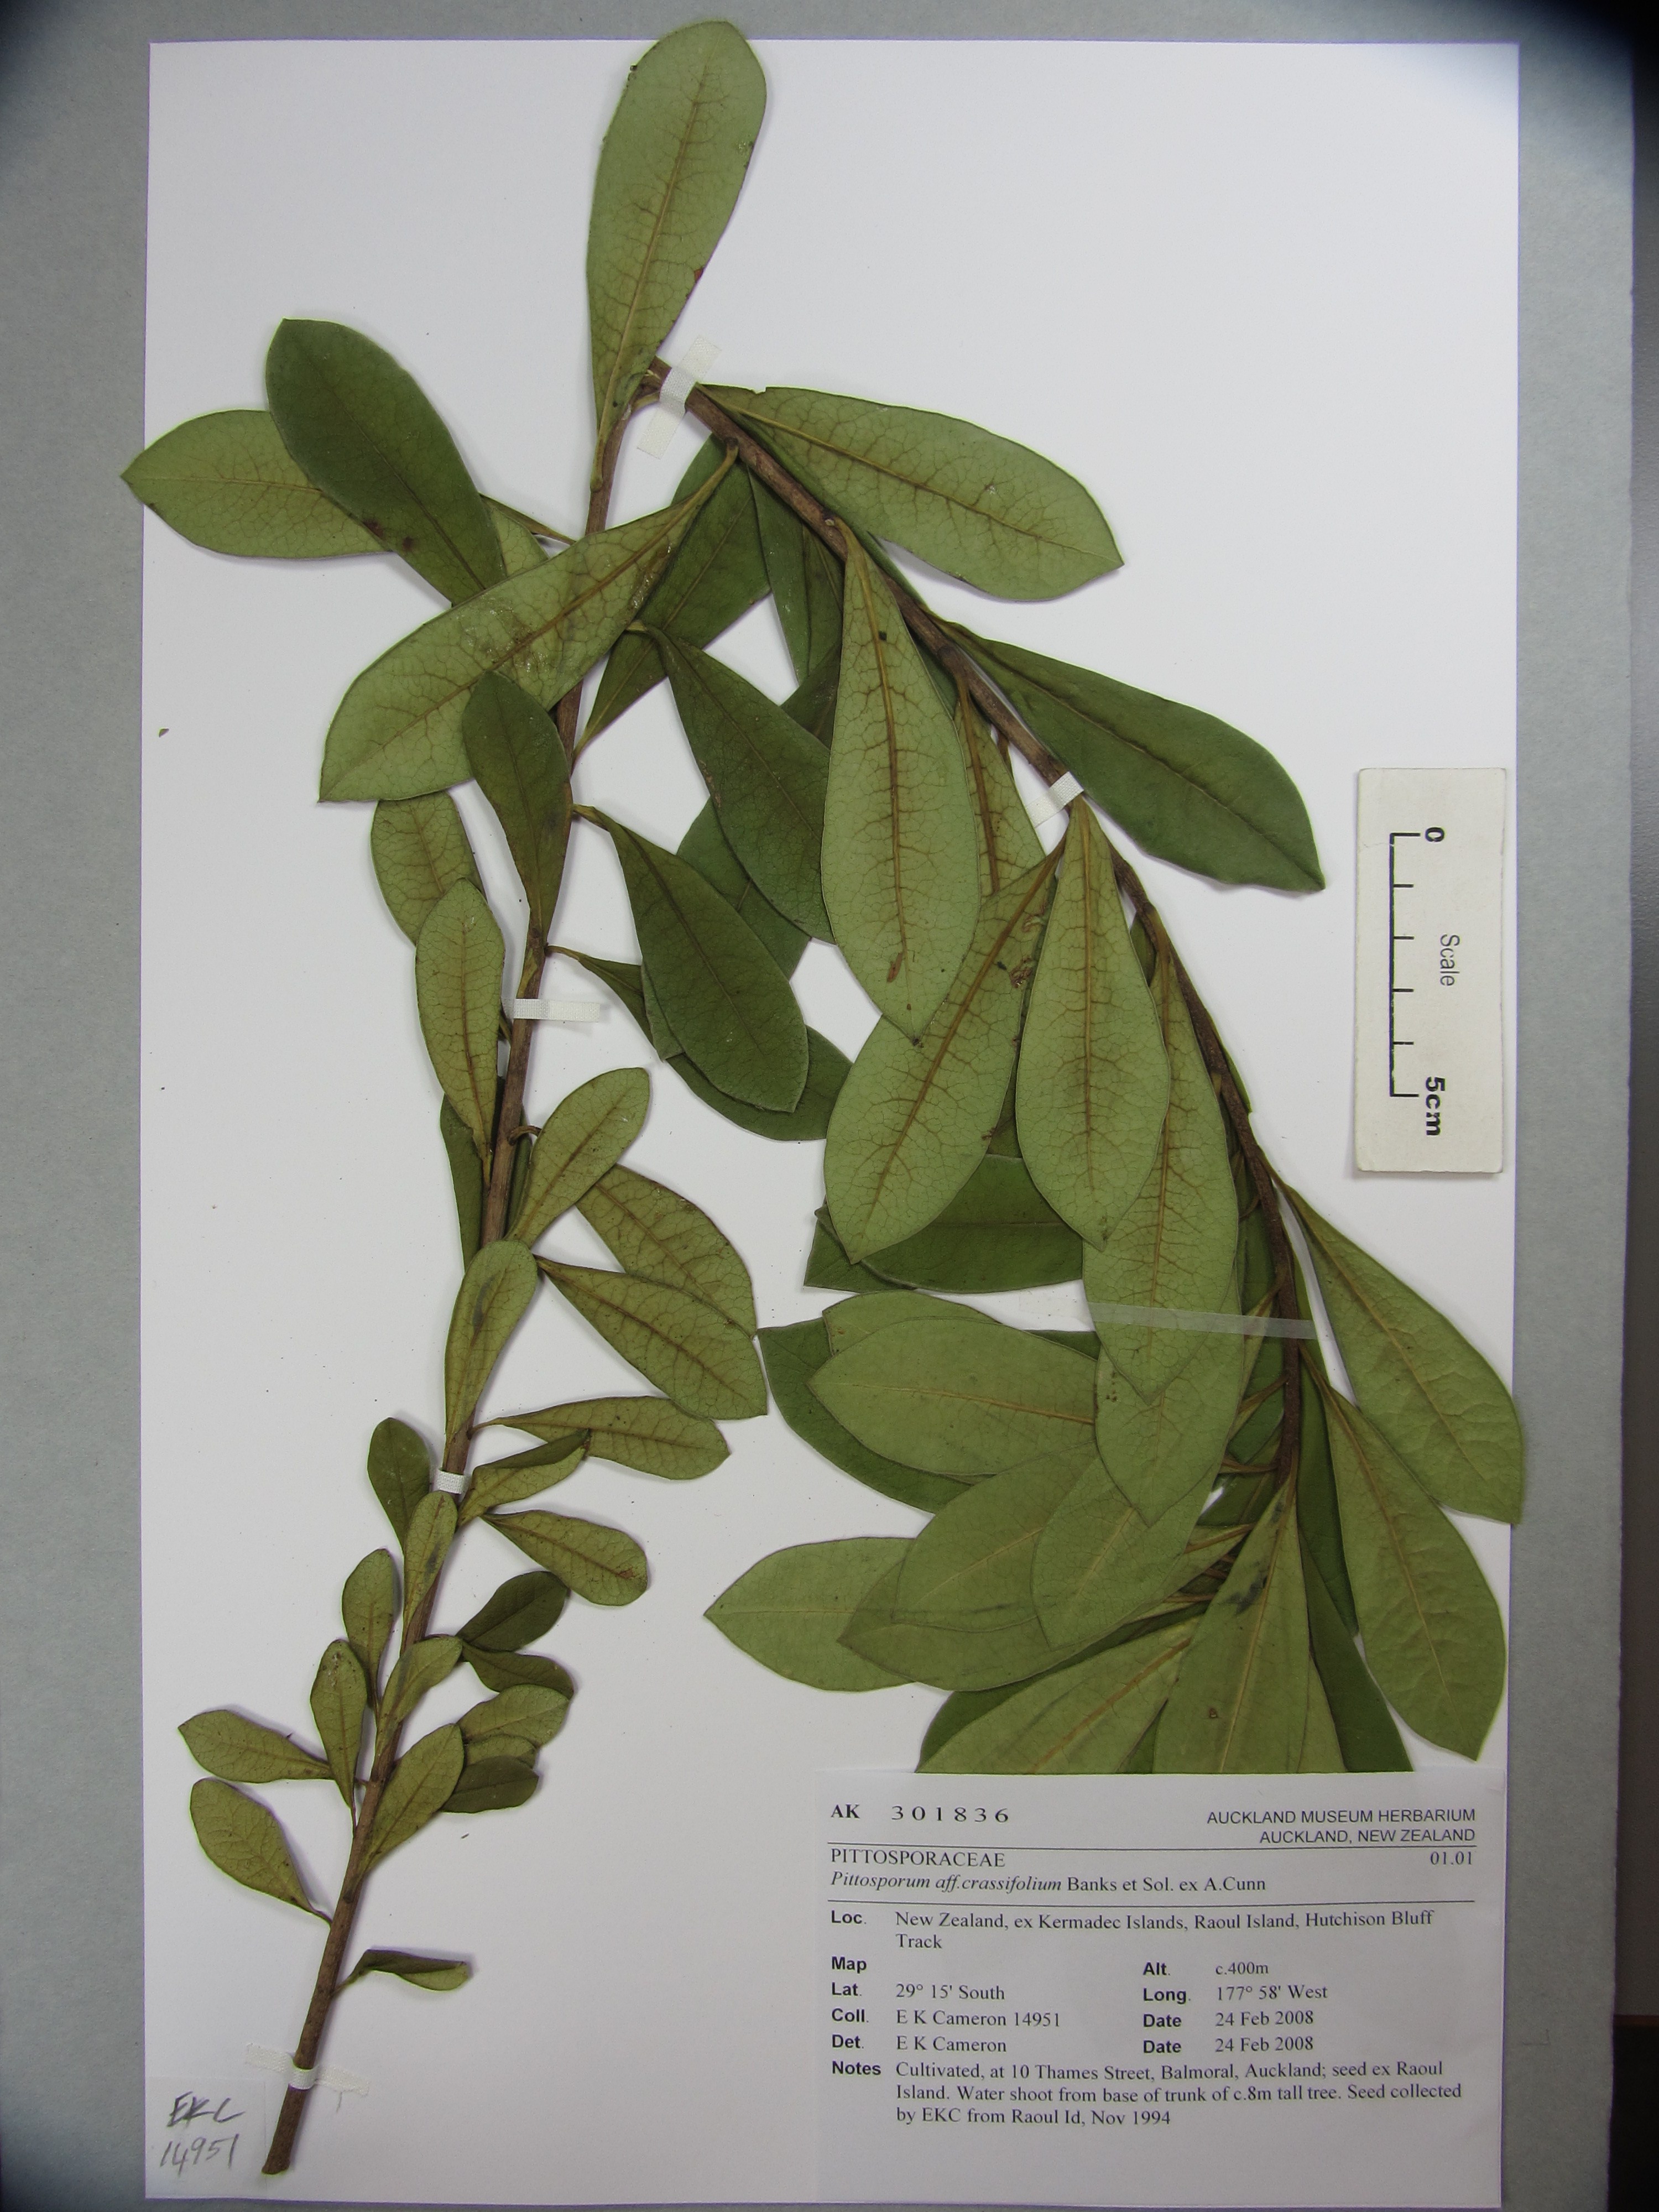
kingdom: Plantae
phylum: Tracheophyta
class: Magnoliopsida
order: Apiales
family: Pittosporaceae
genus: Pittosporum
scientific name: Pittosporum rangitahua
